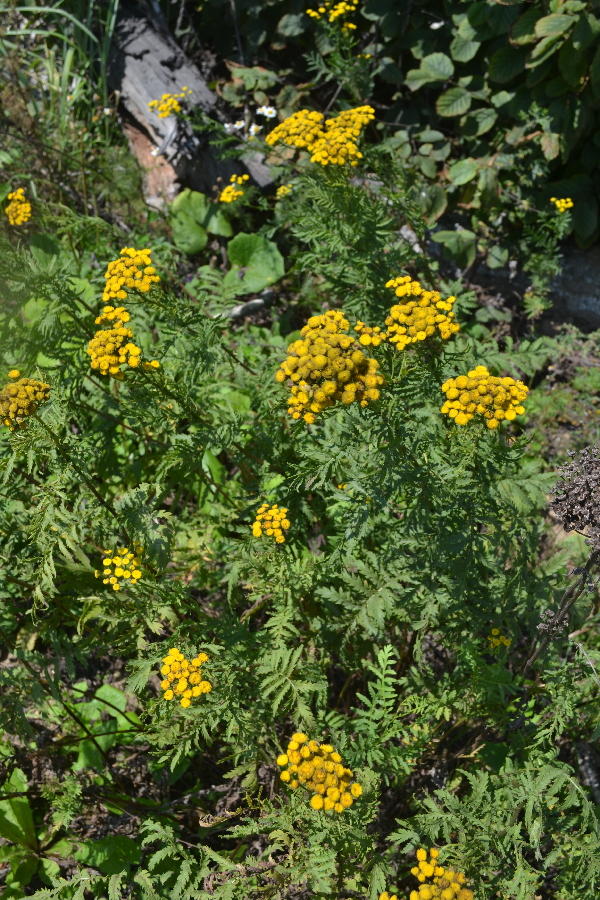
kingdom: Plantae
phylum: Tracheophyta
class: Magnoliopsida
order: Asterales
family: Asteraceae
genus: Tanacetum
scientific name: Tanacetum vulgare
